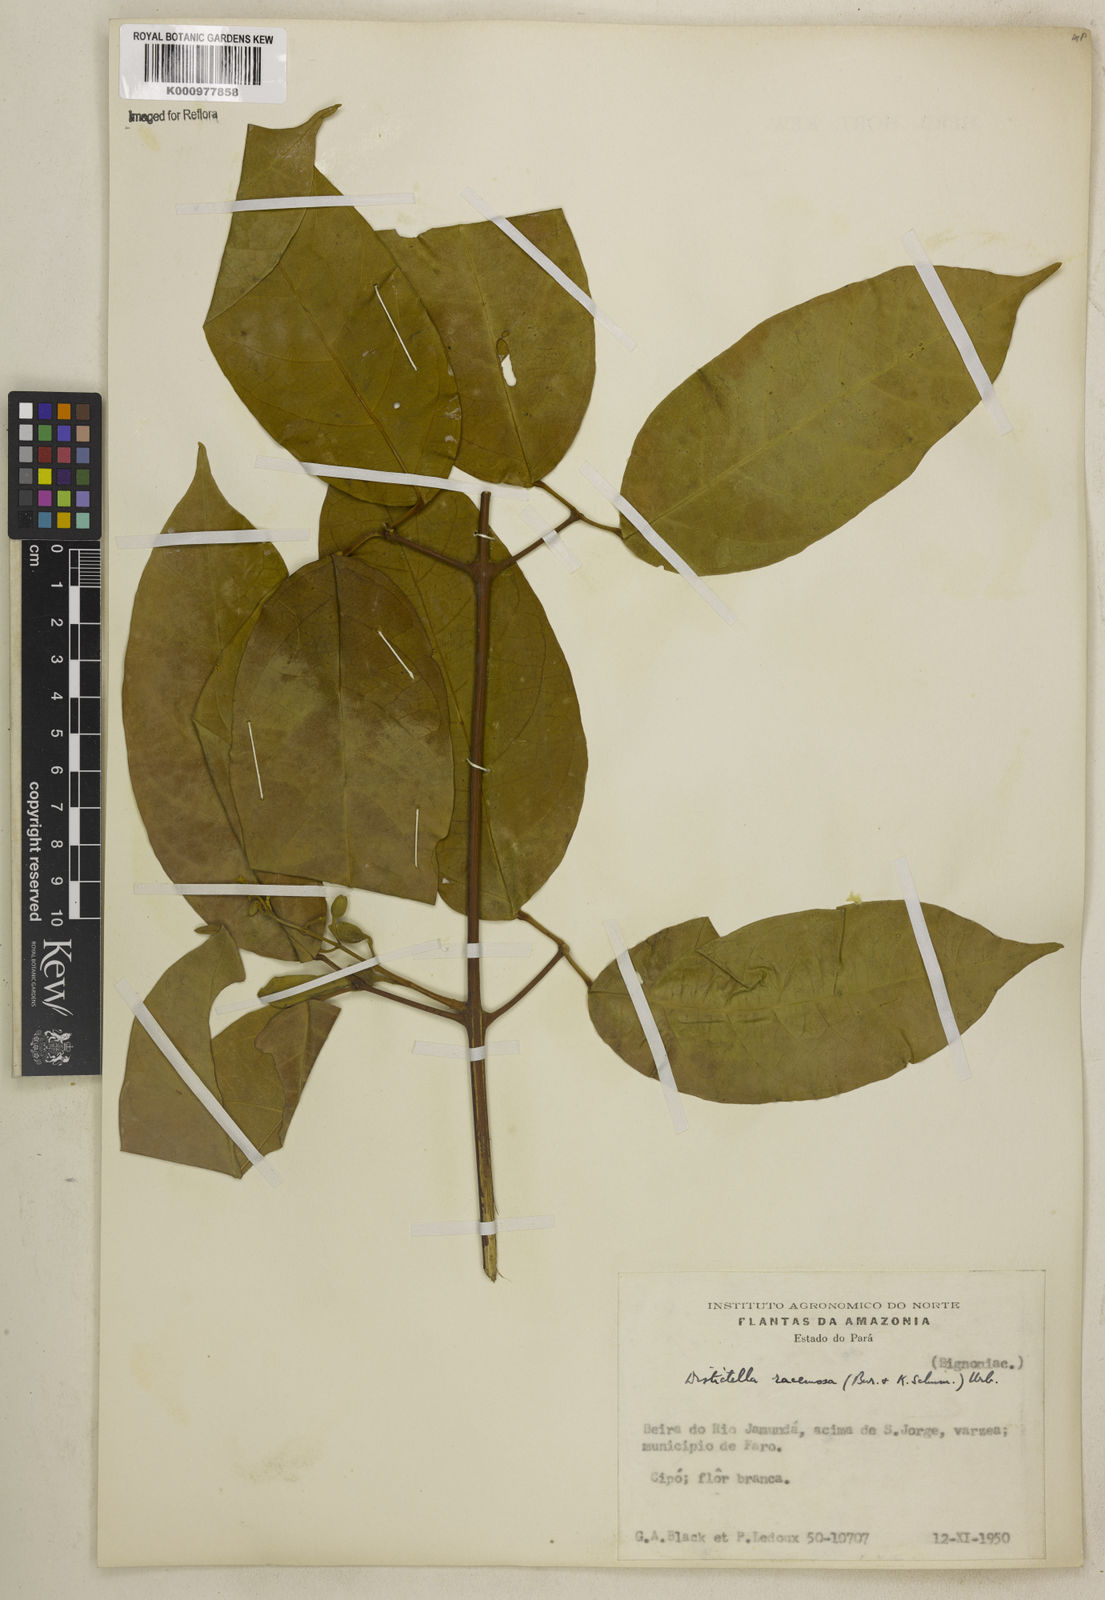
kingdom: Plantae
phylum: Tracheophyta
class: Magnoliopsida
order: Lamiales
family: Bignoniaceae
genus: Amphilophium
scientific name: Amphilophium racemosum
